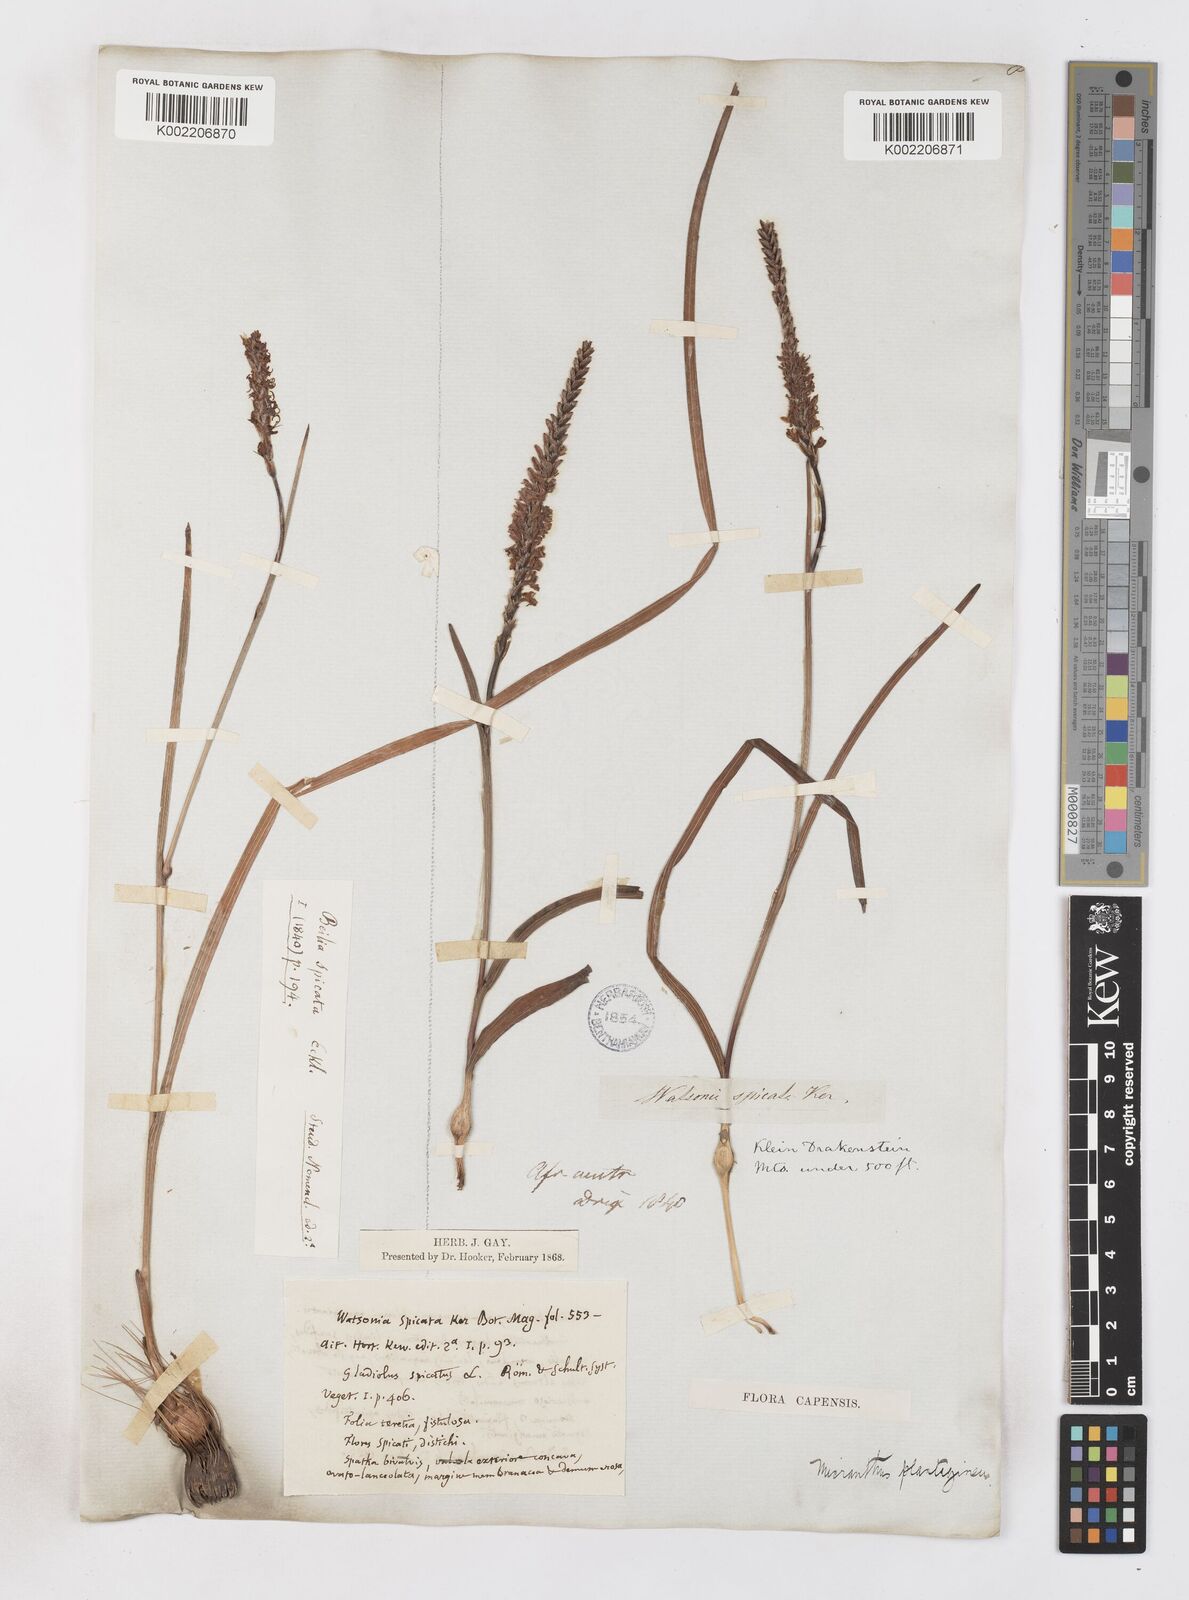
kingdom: Plantae
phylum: Tracheophyta
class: Liliopsida
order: Asparagales
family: Iridaceae
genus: Micranthus
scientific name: Micranthus plantagineus
